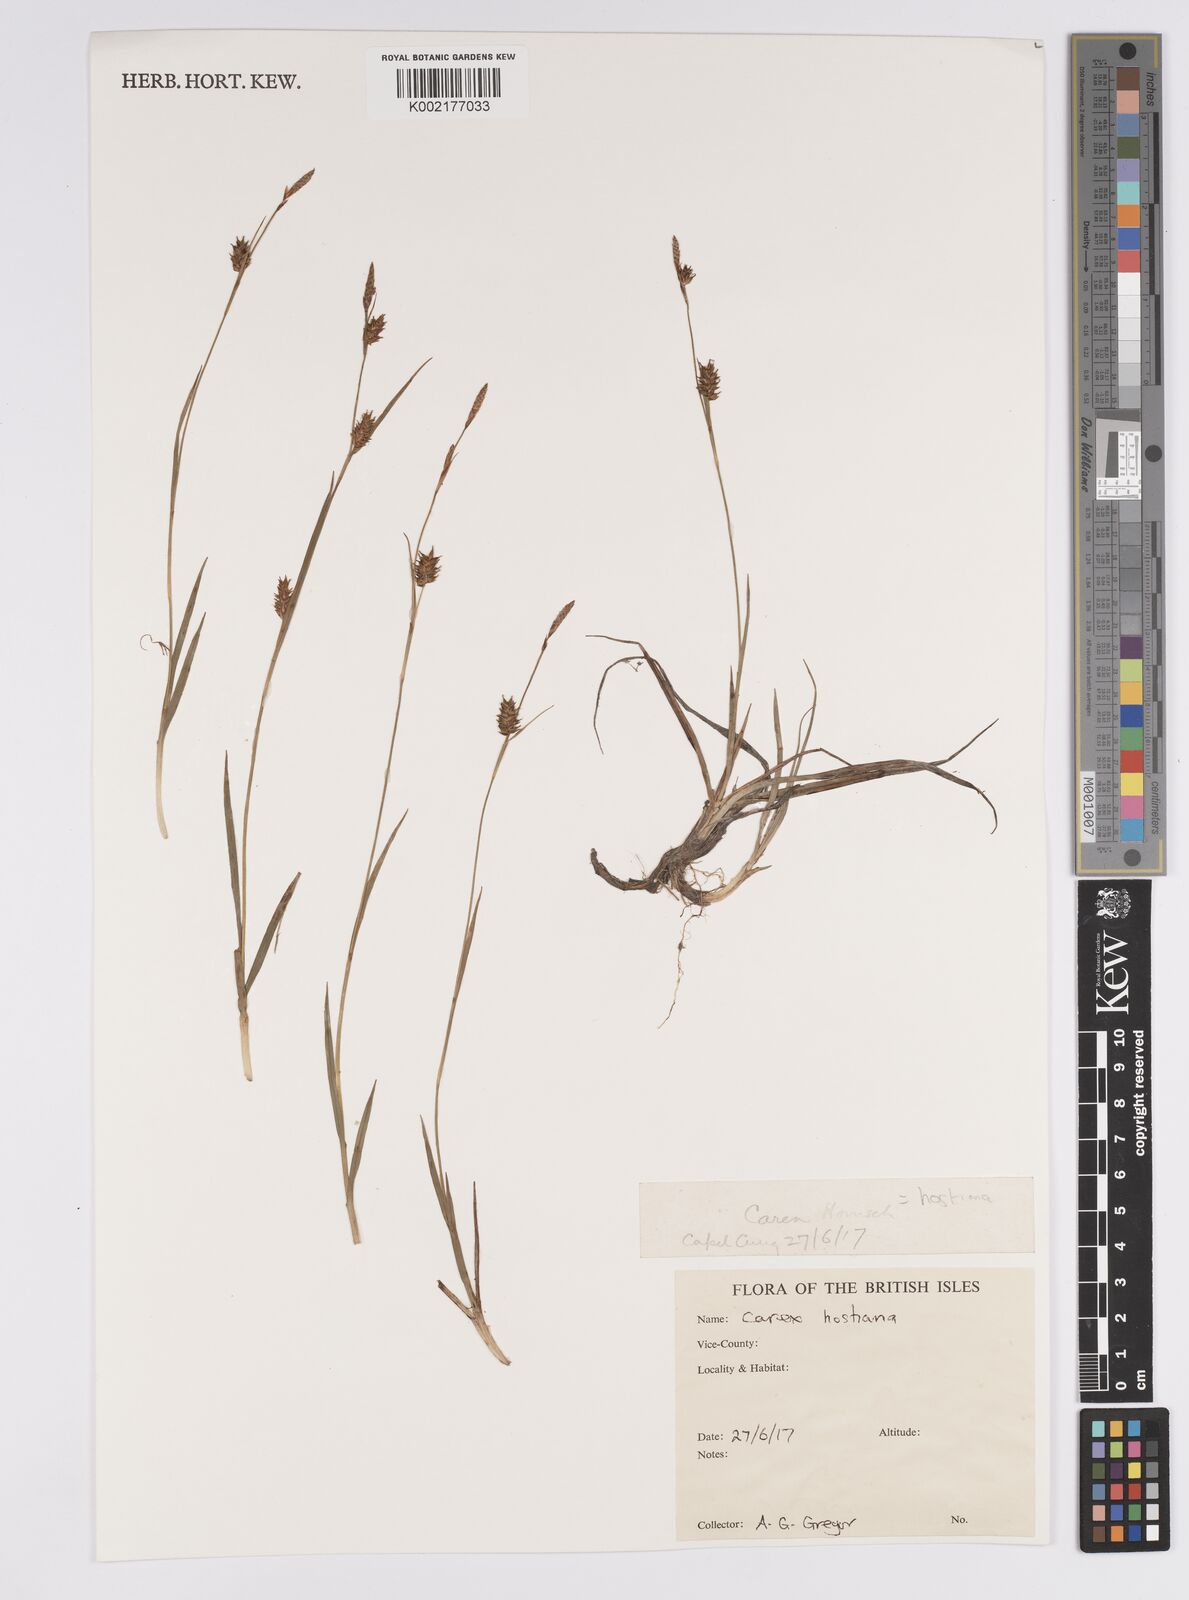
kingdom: Plantae
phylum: Tracheophyta
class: Liliopsida
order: Poales
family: Cyperaceae
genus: Carex
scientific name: Carex hostiana
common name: Tawny sedge
